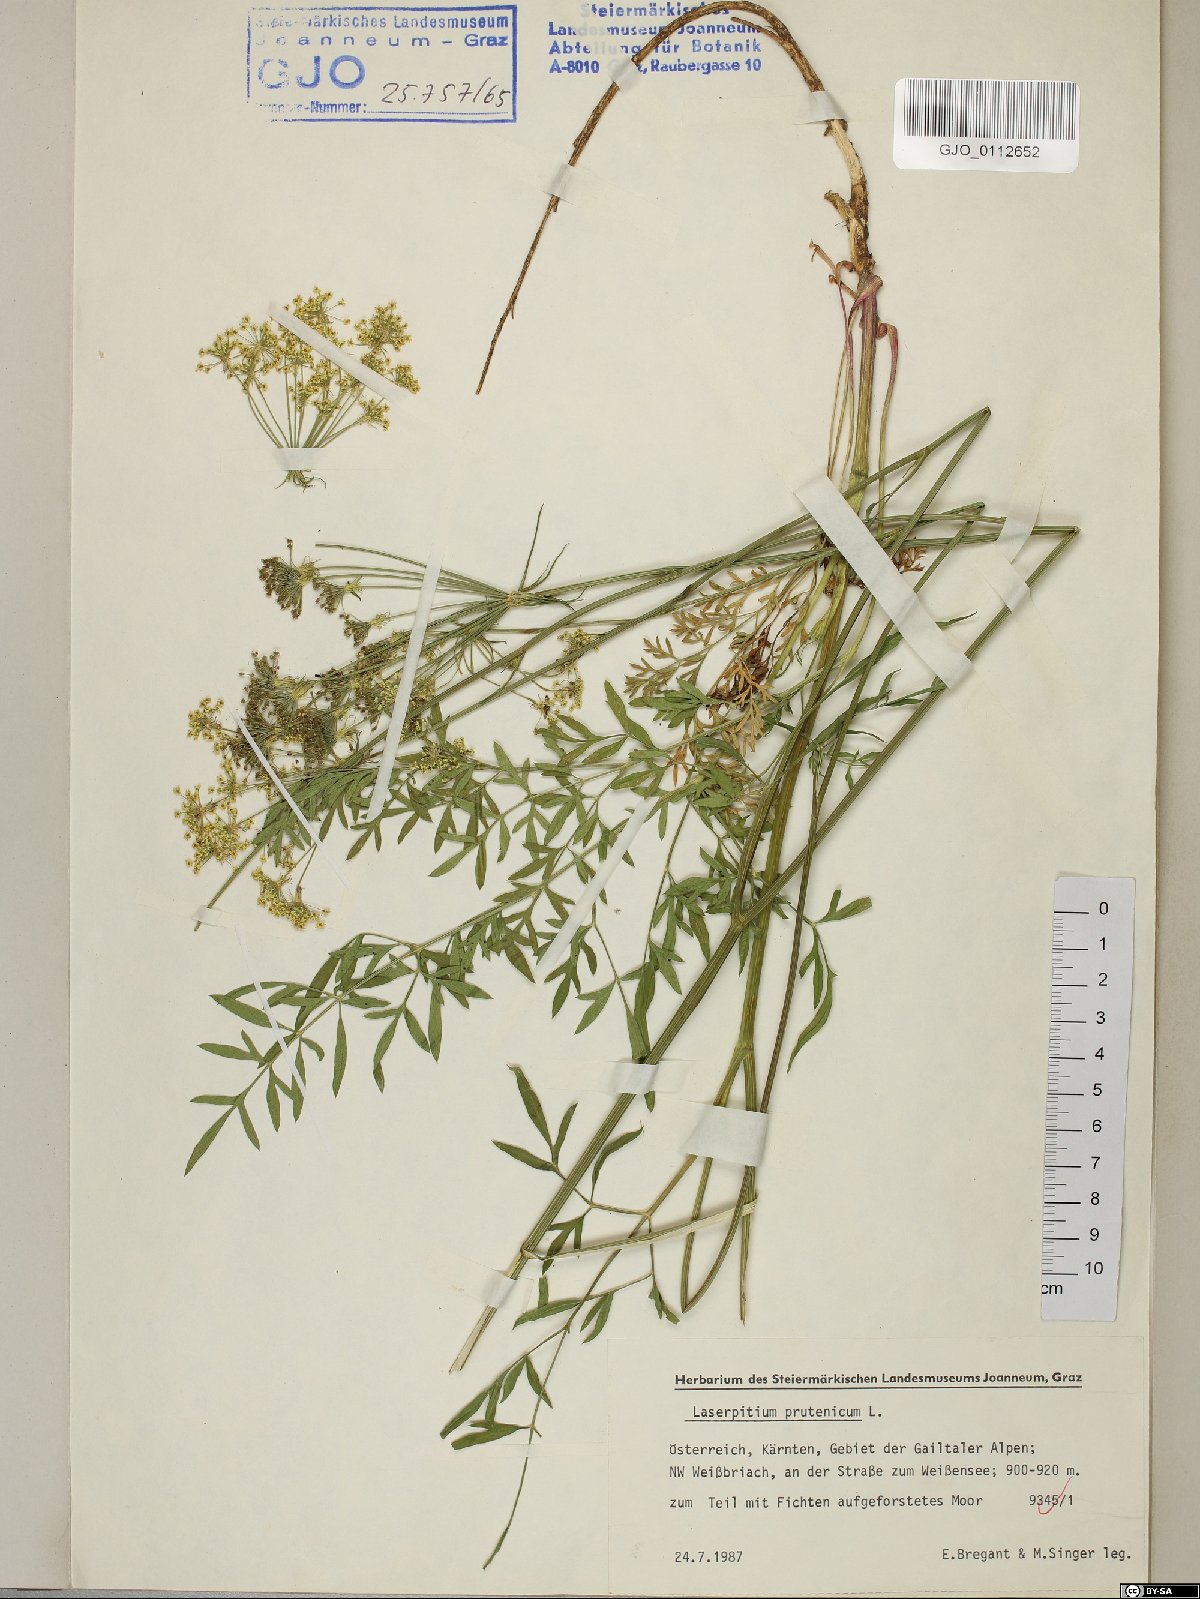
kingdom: Plantae
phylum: Tracheophyta
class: Magnoliopsida
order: Apiales
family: Apiaceae
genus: Silphiodaucus
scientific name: Silphiodaucus prutenicus
